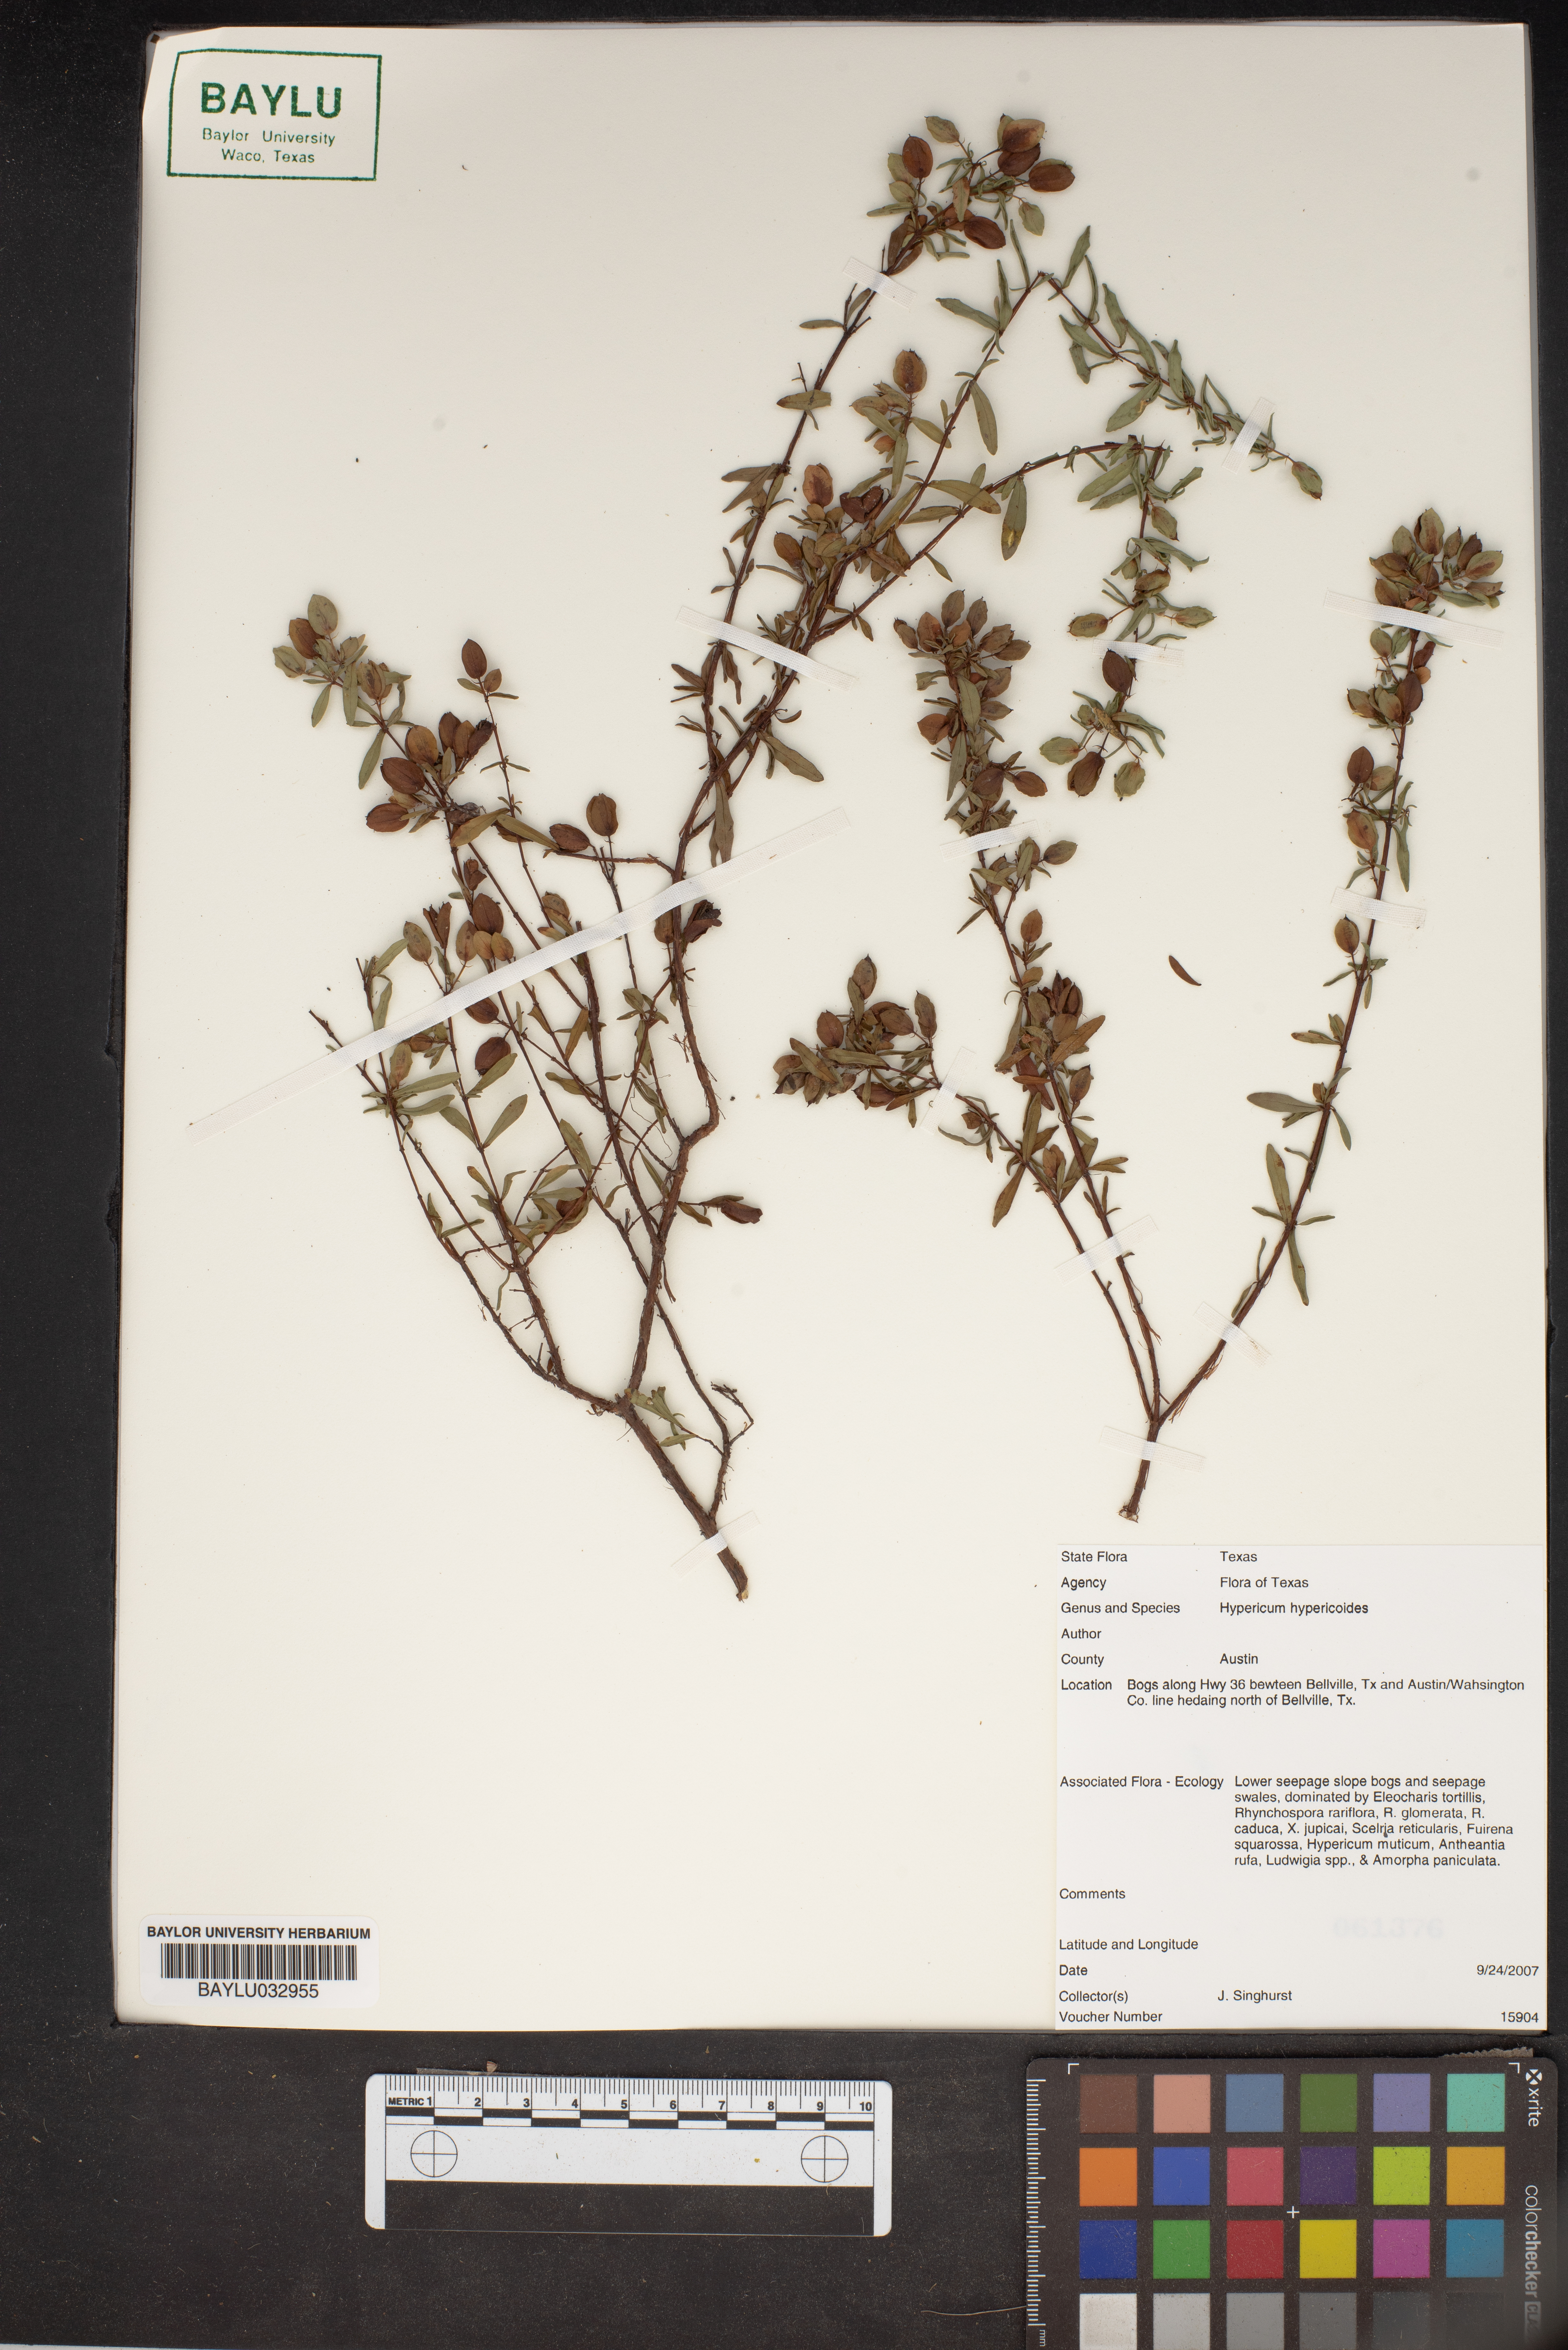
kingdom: Plantae
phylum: Tracheophyta
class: Magnoliopsida
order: Malpighiales
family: Hypericaceae
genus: Hypericum
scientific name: Hypericum hypericoides
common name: St. andrew's cross
